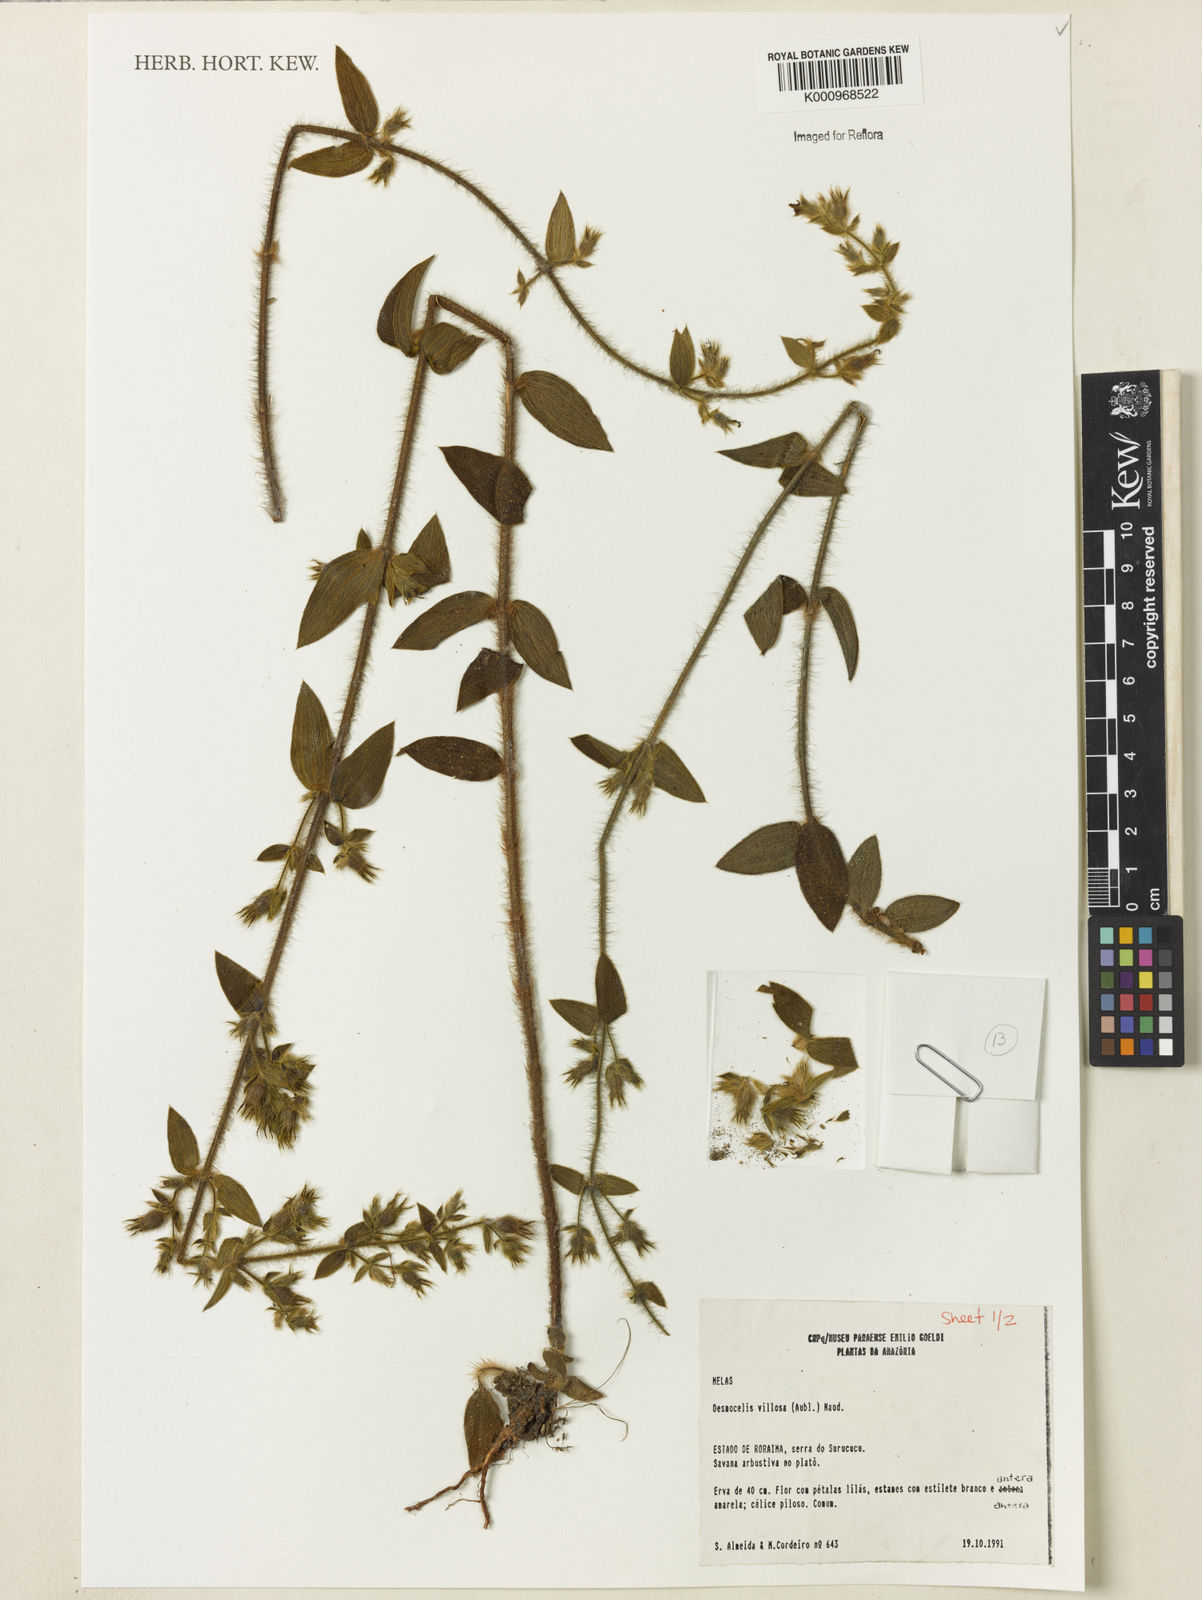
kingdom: Plantae
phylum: Tracheophyta
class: Magnoliopsida
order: Myrtales
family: Melastomataceae
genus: Desmoscelis
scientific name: Desmoscelis villosa
